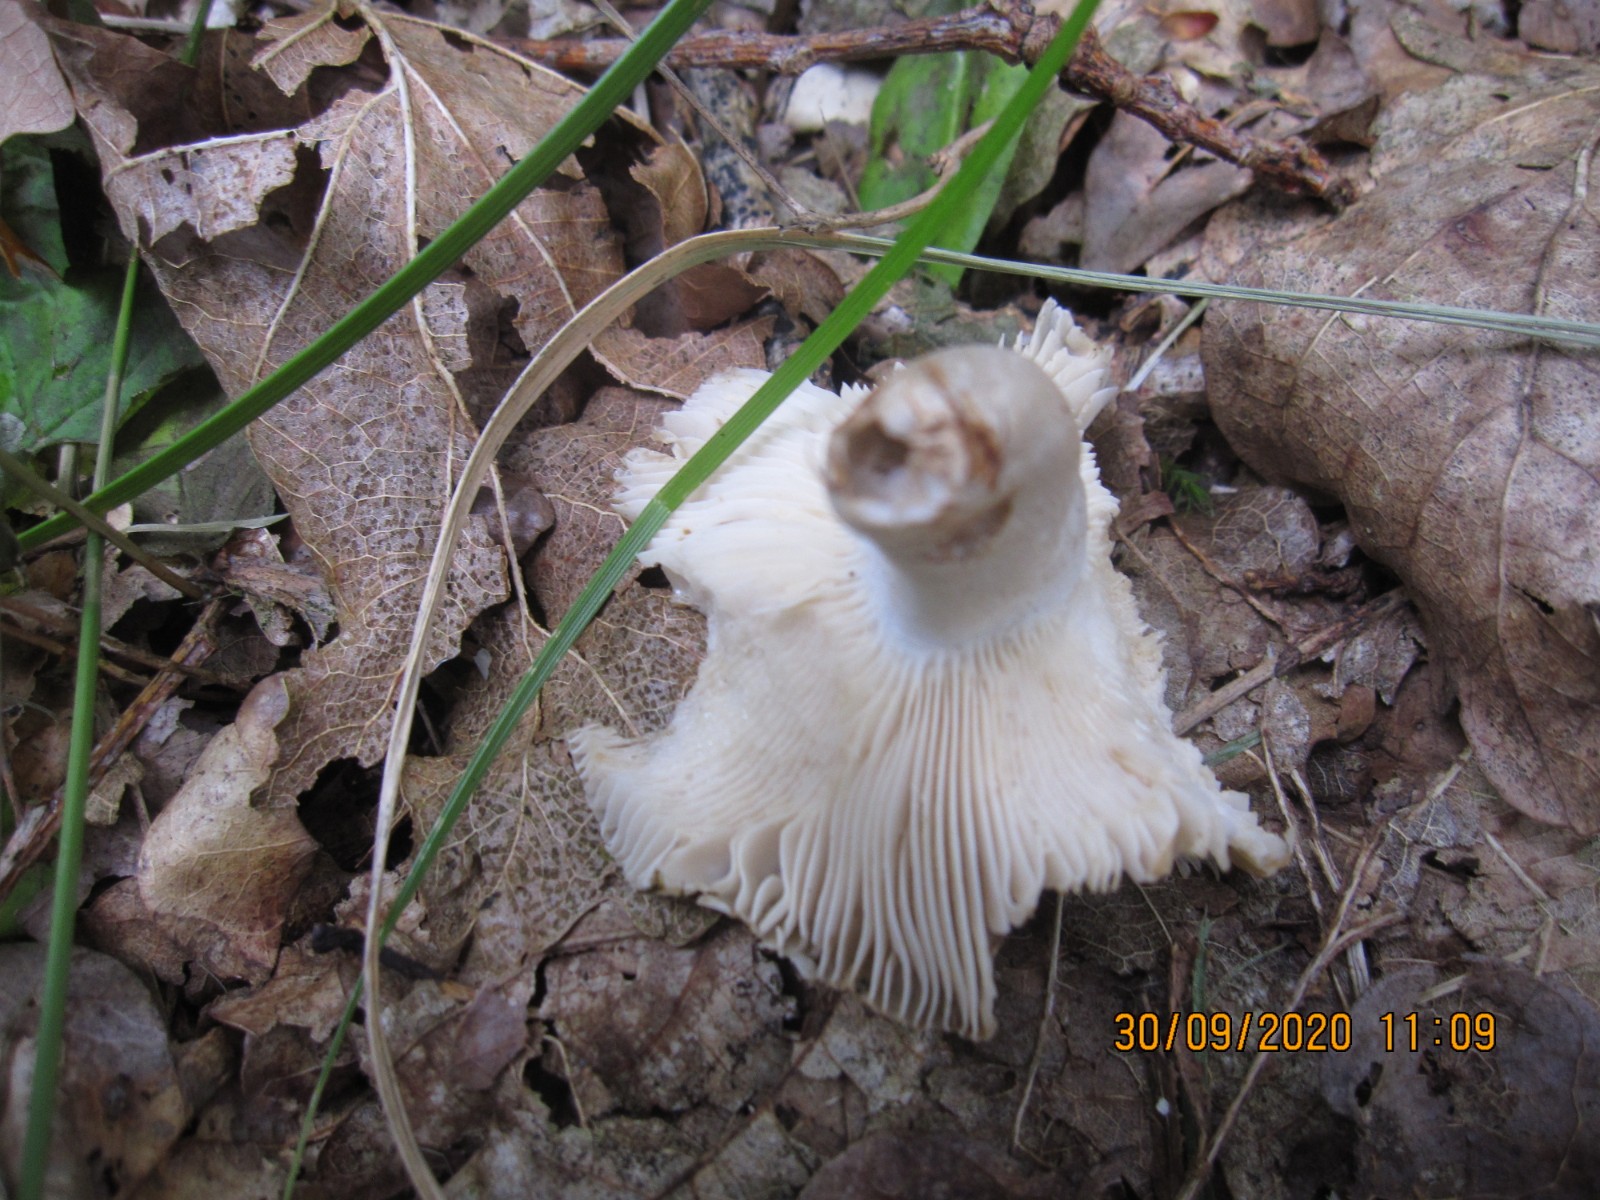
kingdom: Fungi
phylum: Basidiomycota
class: Agaricomycetes
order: Russulales
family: Russulaceae
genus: Russula
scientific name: Russula amoenolens
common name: skarp kam-skørhat
